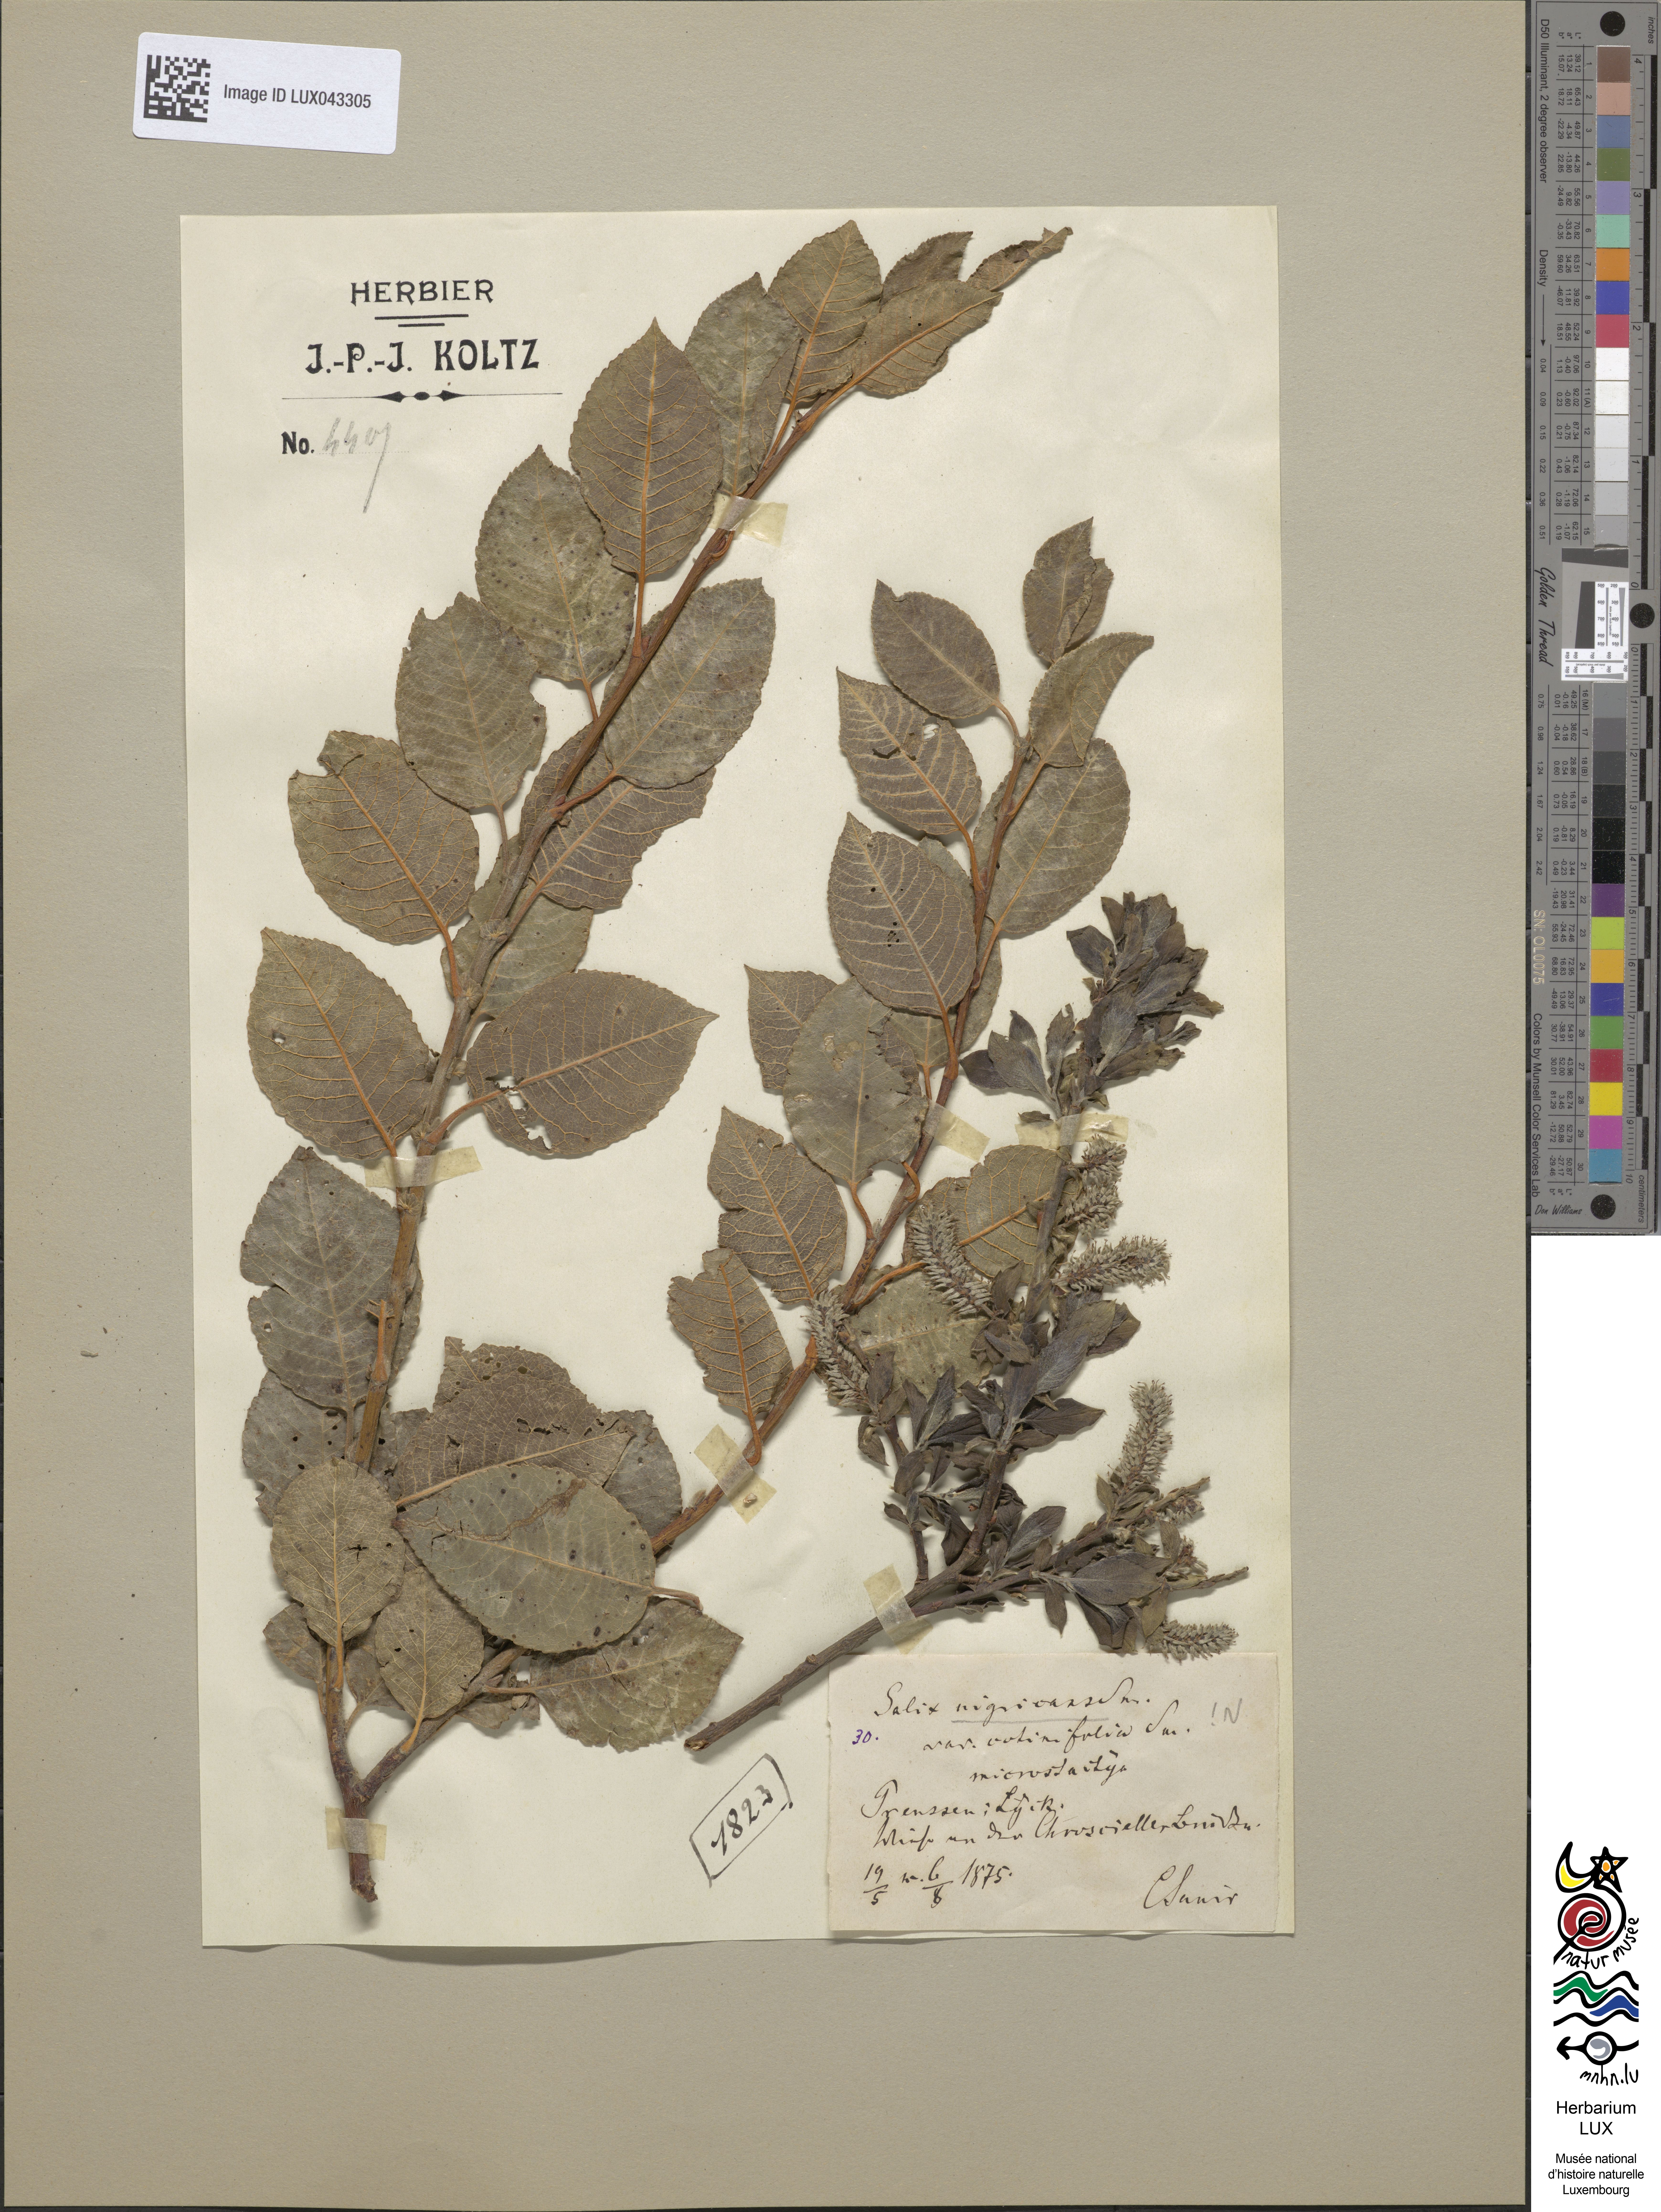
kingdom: Plantae
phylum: Tracheophyta
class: Magnoliopsida
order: Malpighiales
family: Salicaceae
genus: Salix
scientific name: Salix myrsinifolia
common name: Dark-leaved willow
